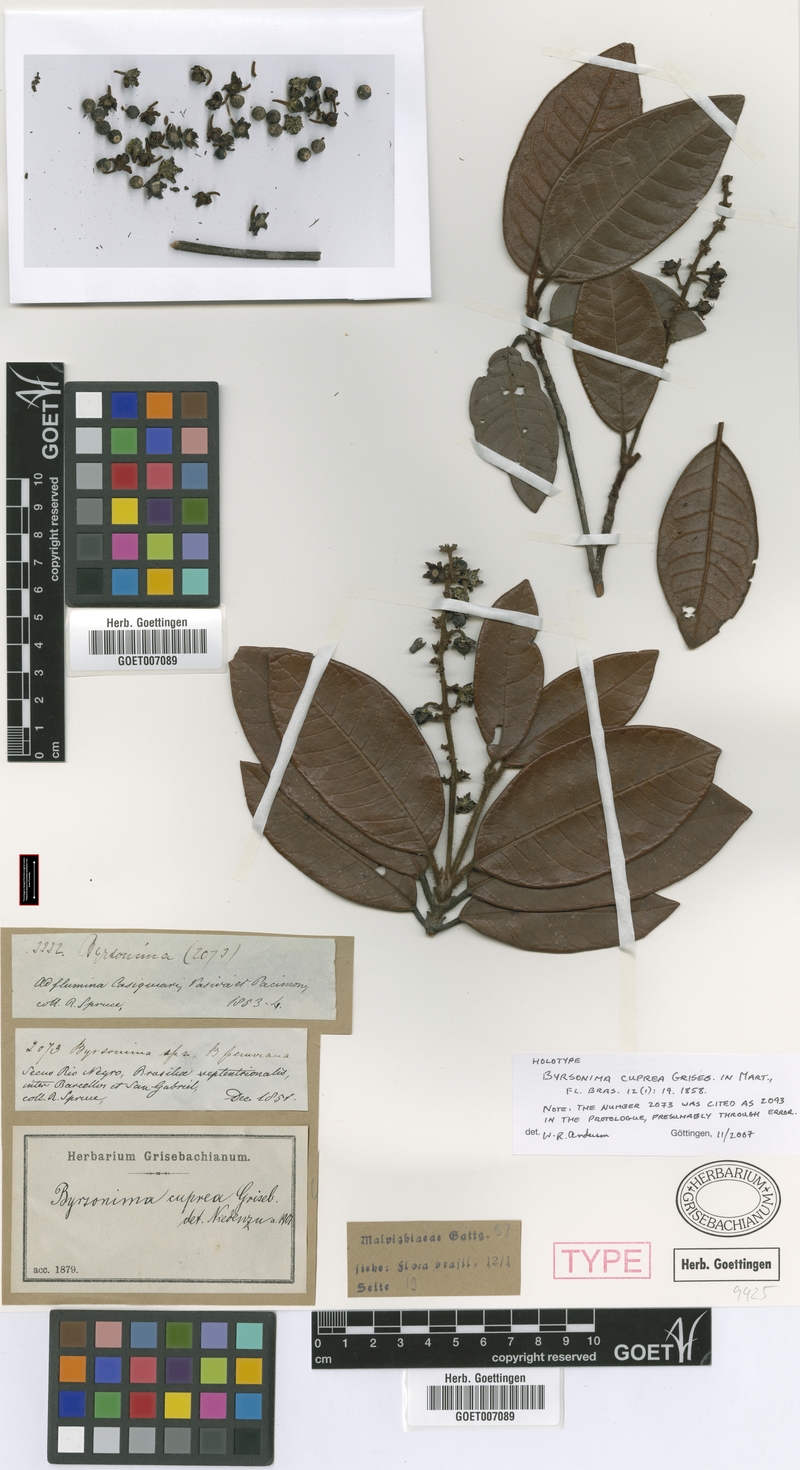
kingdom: Plantae
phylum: Tracheophyta
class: Magnoliopsida
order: Malpighiales
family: Malpighiaceae
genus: Byrsonima
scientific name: Byrsonima cuprea
